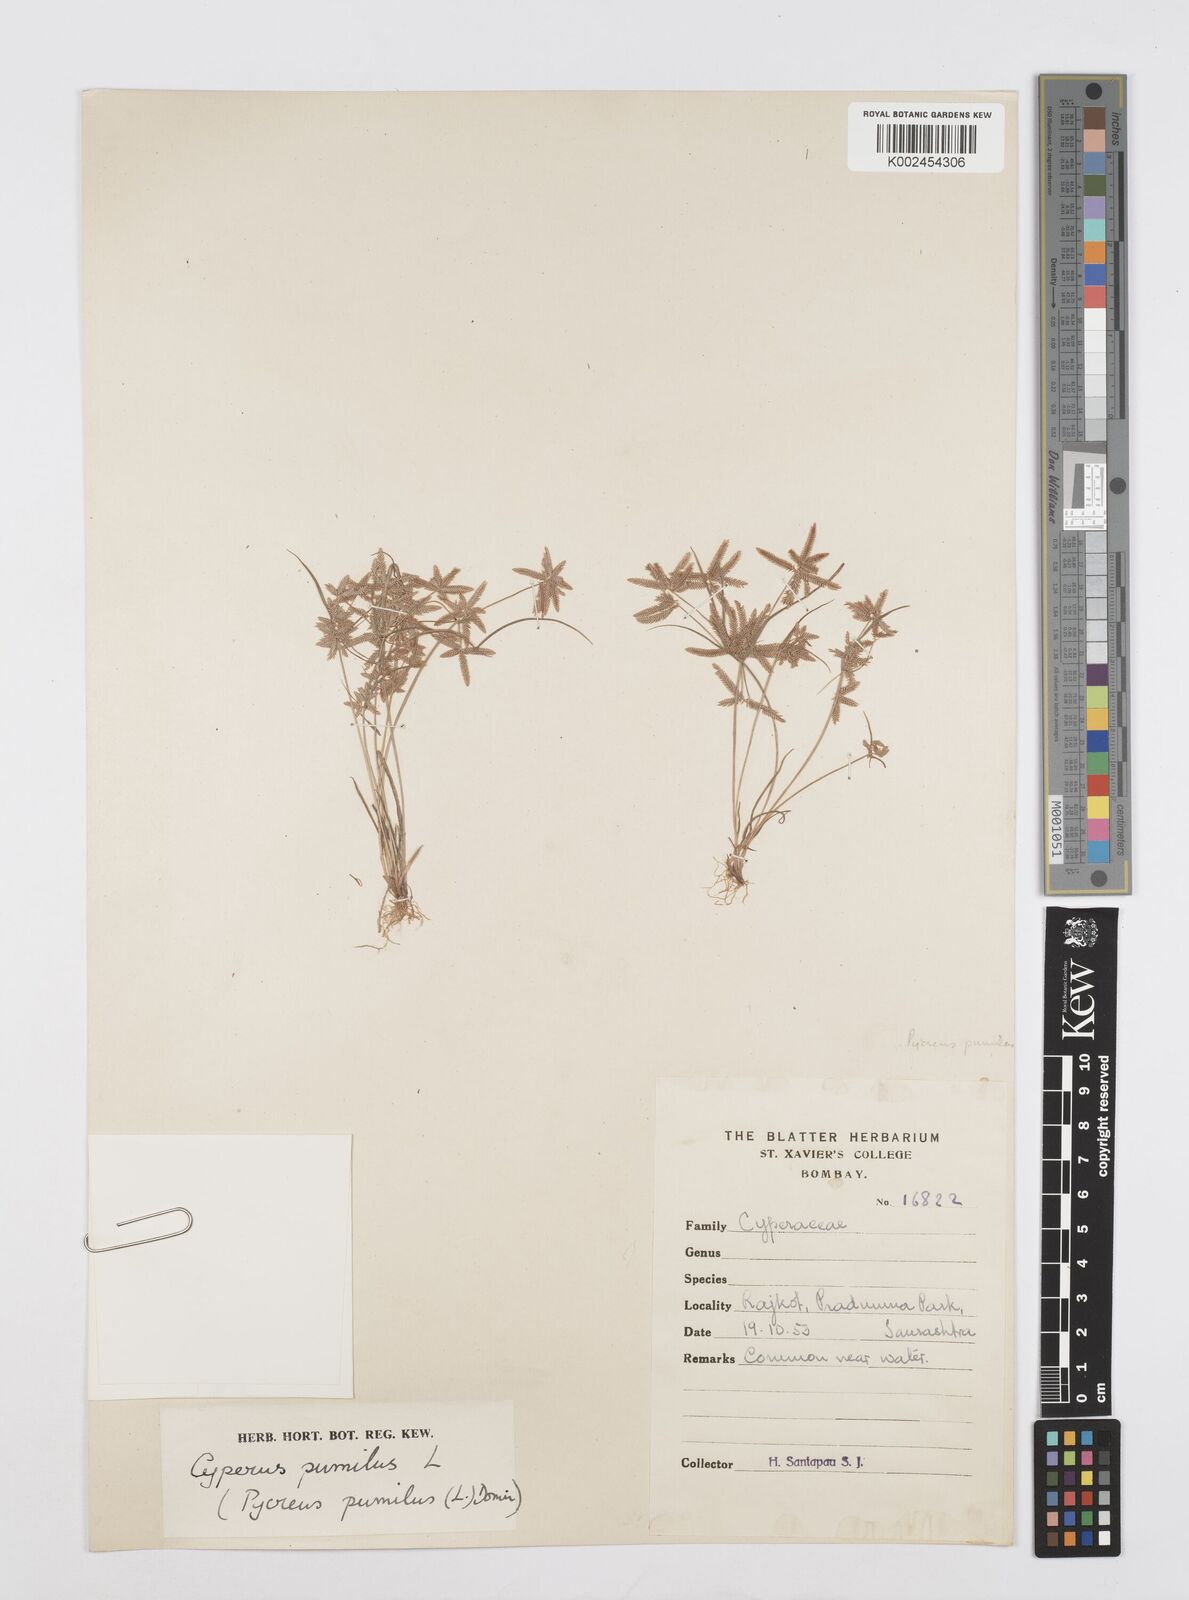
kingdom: Plantae
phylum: Tracheophyta
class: Liliopsida
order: Poales
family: Cyperaceae
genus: Cyperus
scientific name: Cyperus pumilus
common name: Low flatsedge
